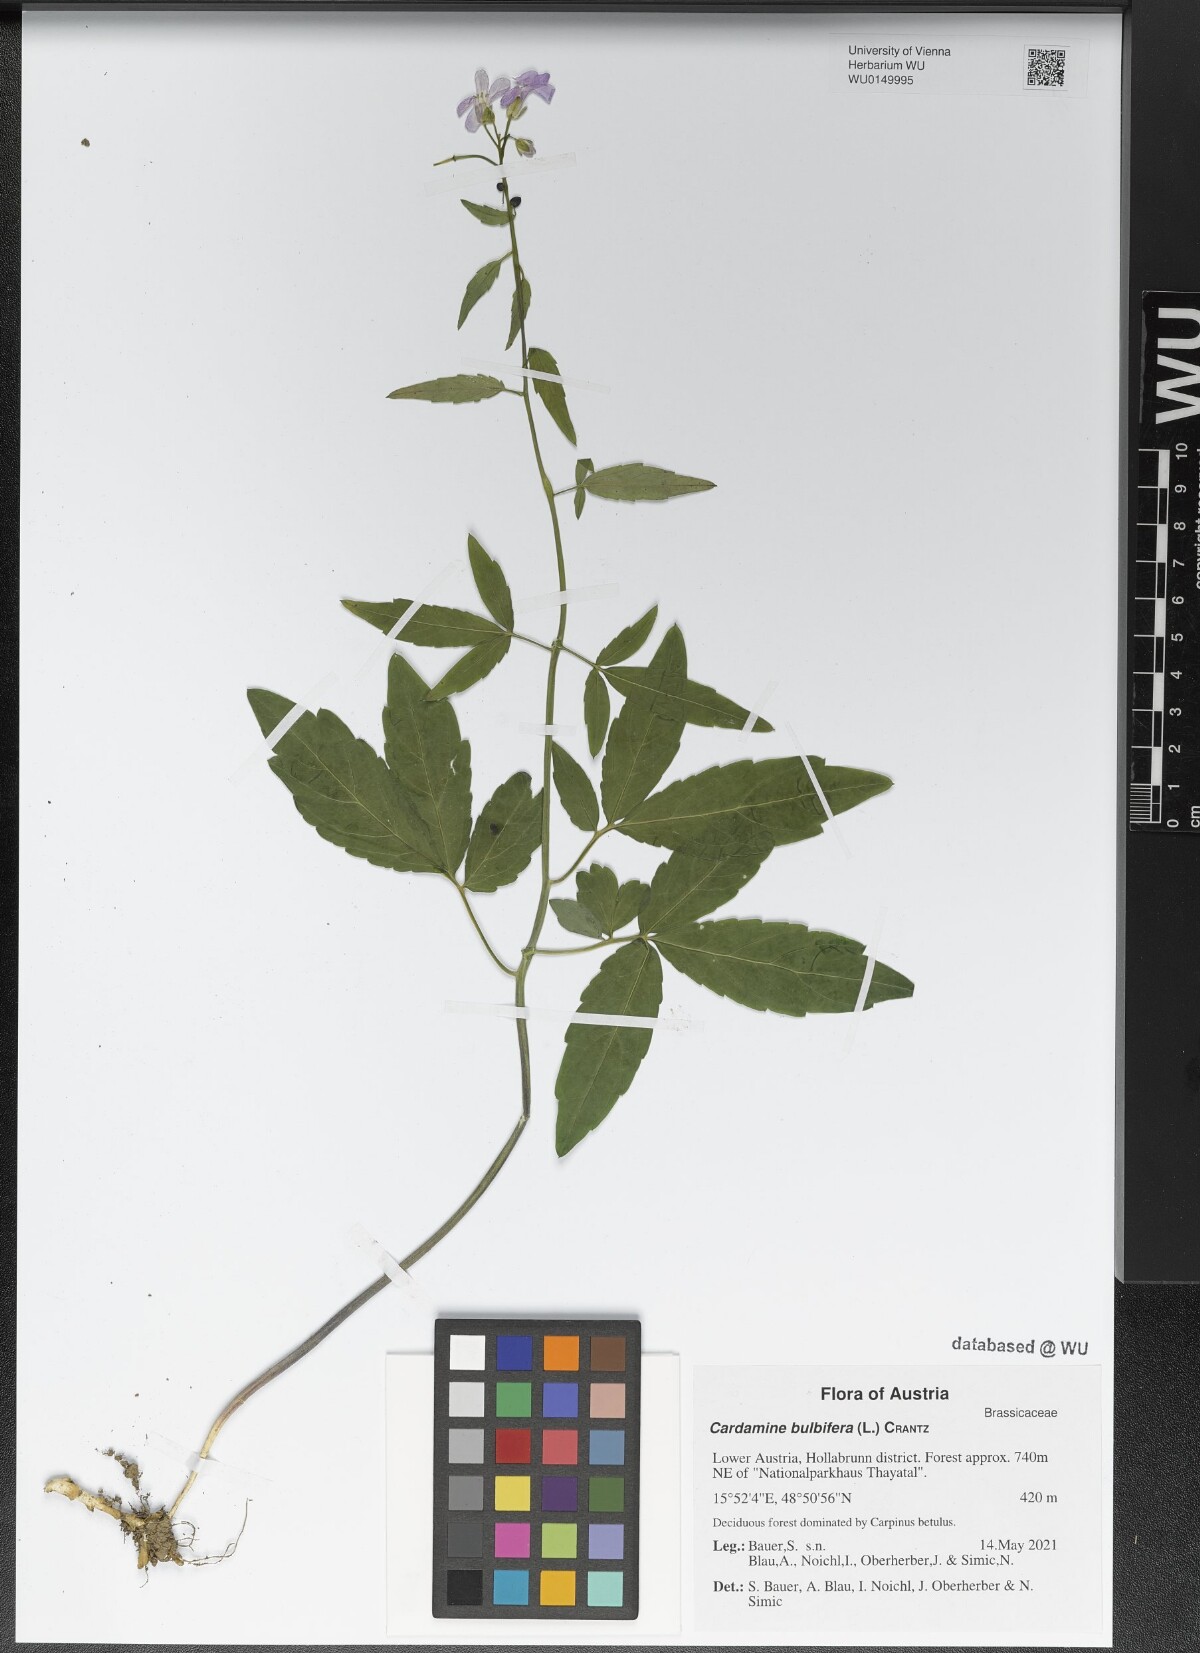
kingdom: Plantae
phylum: Tracheophyta
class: Magnoliopsida
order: Brassicales
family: Brassicaceae
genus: Cardamine
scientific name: Cardamine bulbifera
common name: Coralroot bittercress
